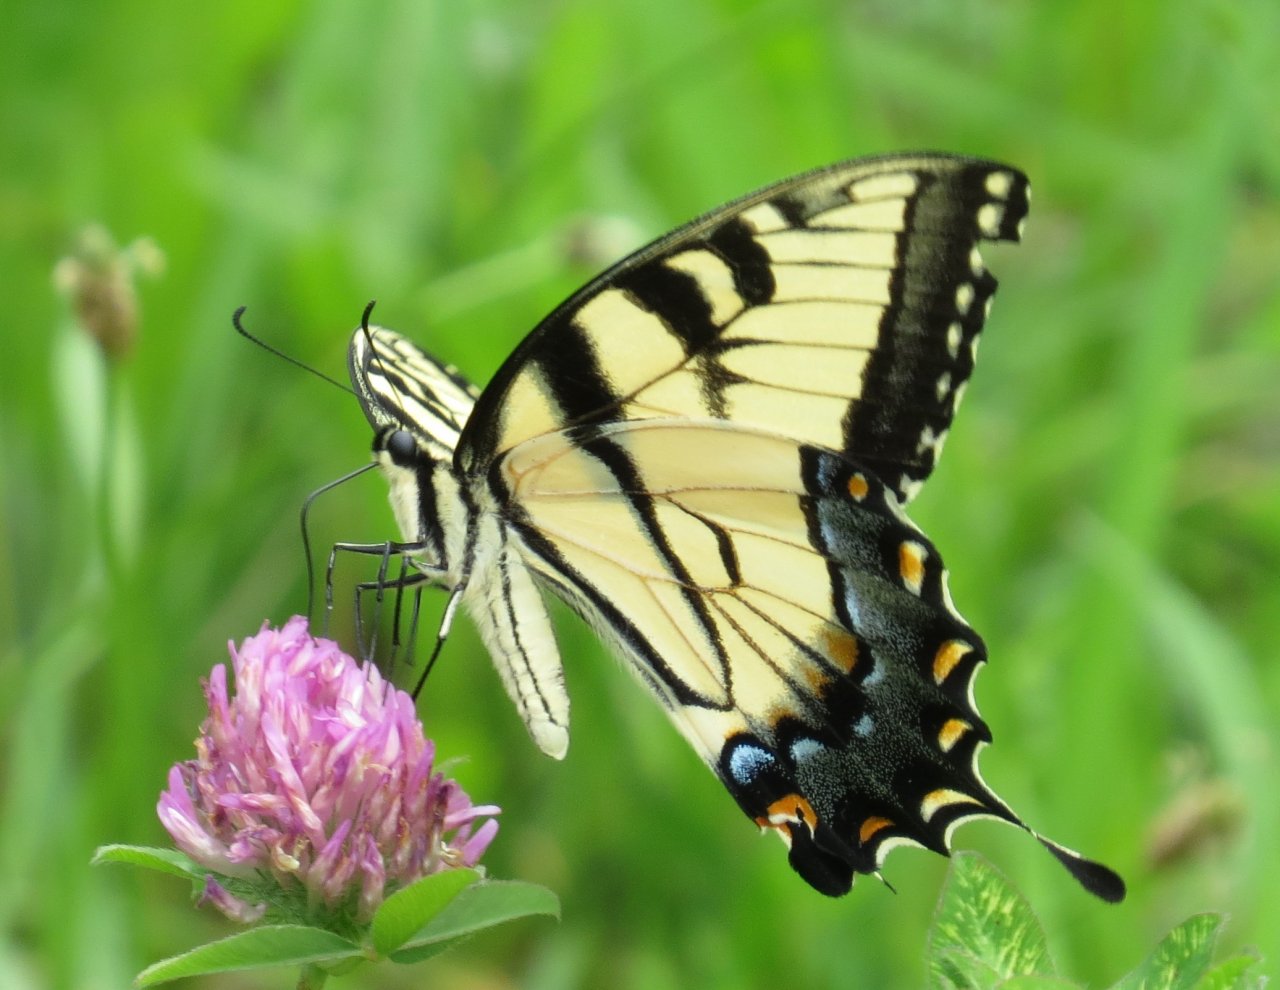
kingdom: Animalia
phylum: Arthropoda
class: Insecta
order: Lepidoptera
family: Papilionidae
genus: Pterourus
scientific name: Pterourus glaucus
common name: Eastern Tiger Swallowtail
